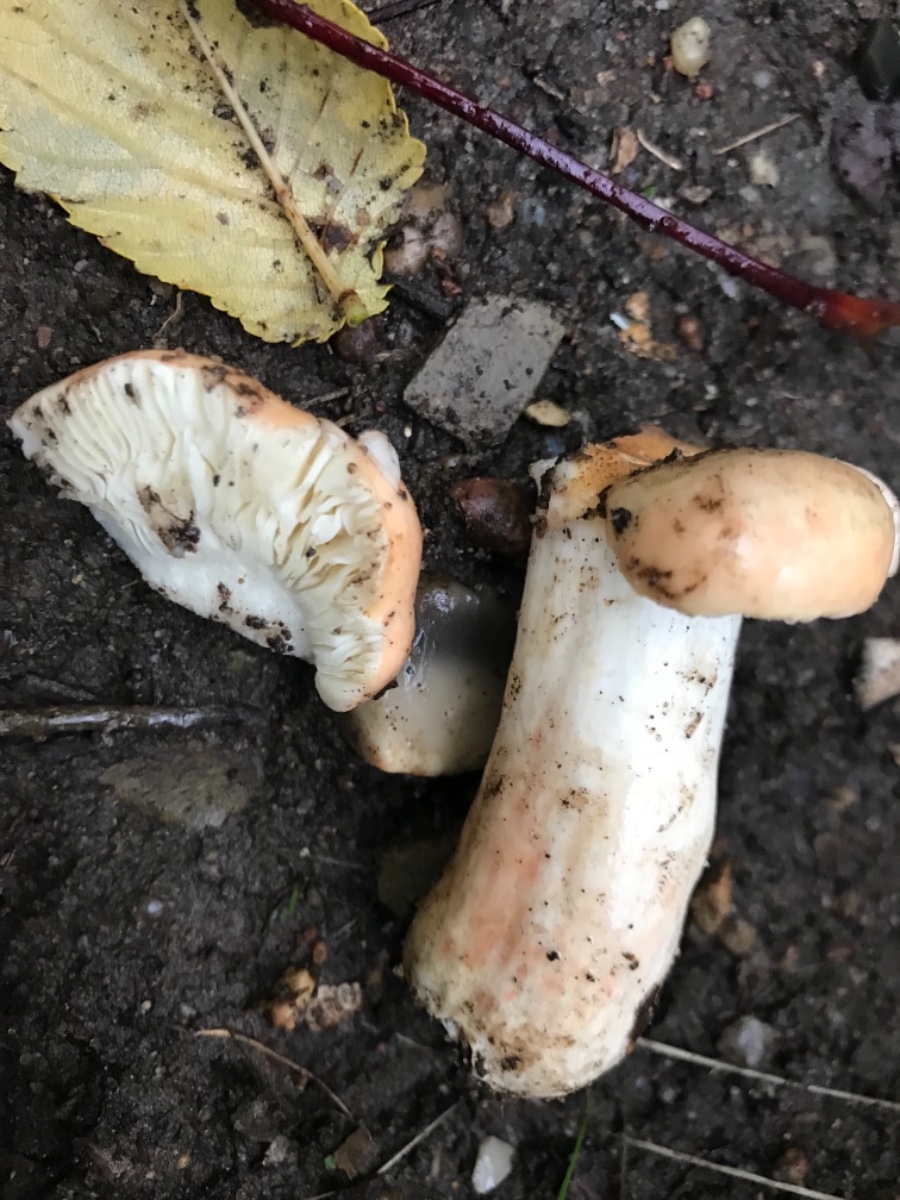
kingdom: Fungi
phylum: Basidiomycota
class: Agaricomycetes
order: Russulales
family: Russulaceae
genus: Russula
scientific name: Russula
